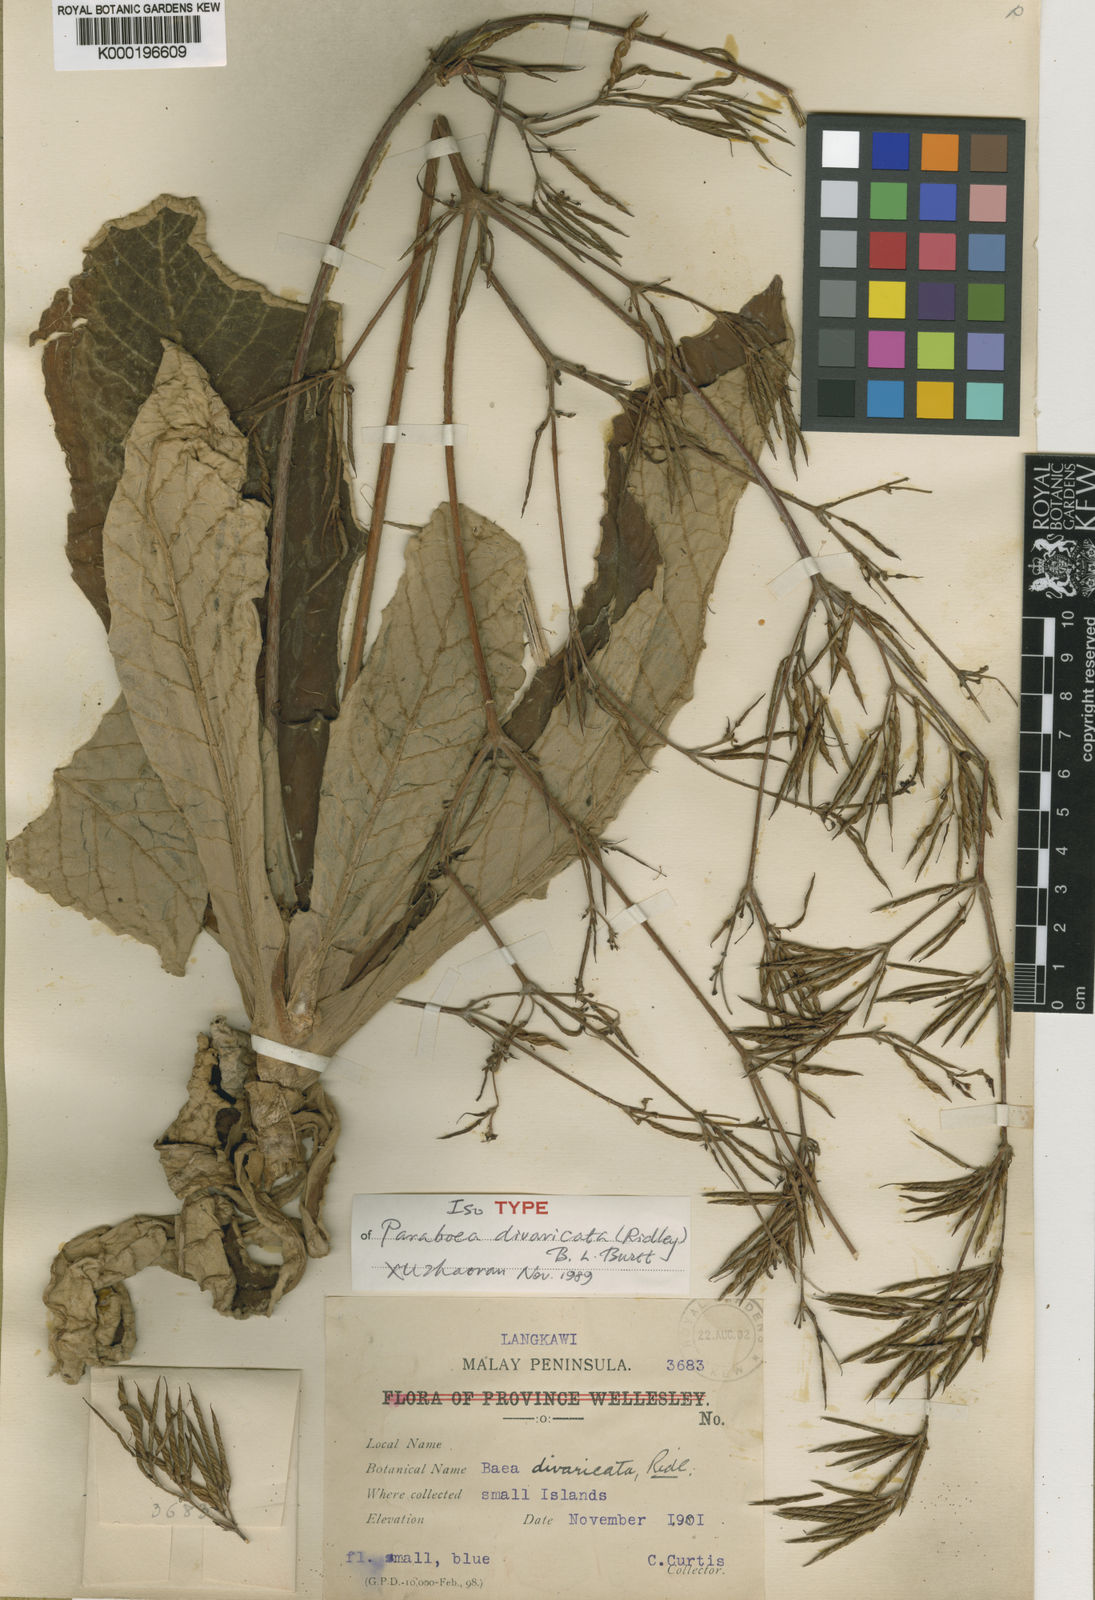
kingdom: Plantae
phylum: Tracheophyta
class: Magnoliopsida
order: Lamiales
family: Gesneriaceae
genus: Paraboea
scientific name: Paraboea divaricata
